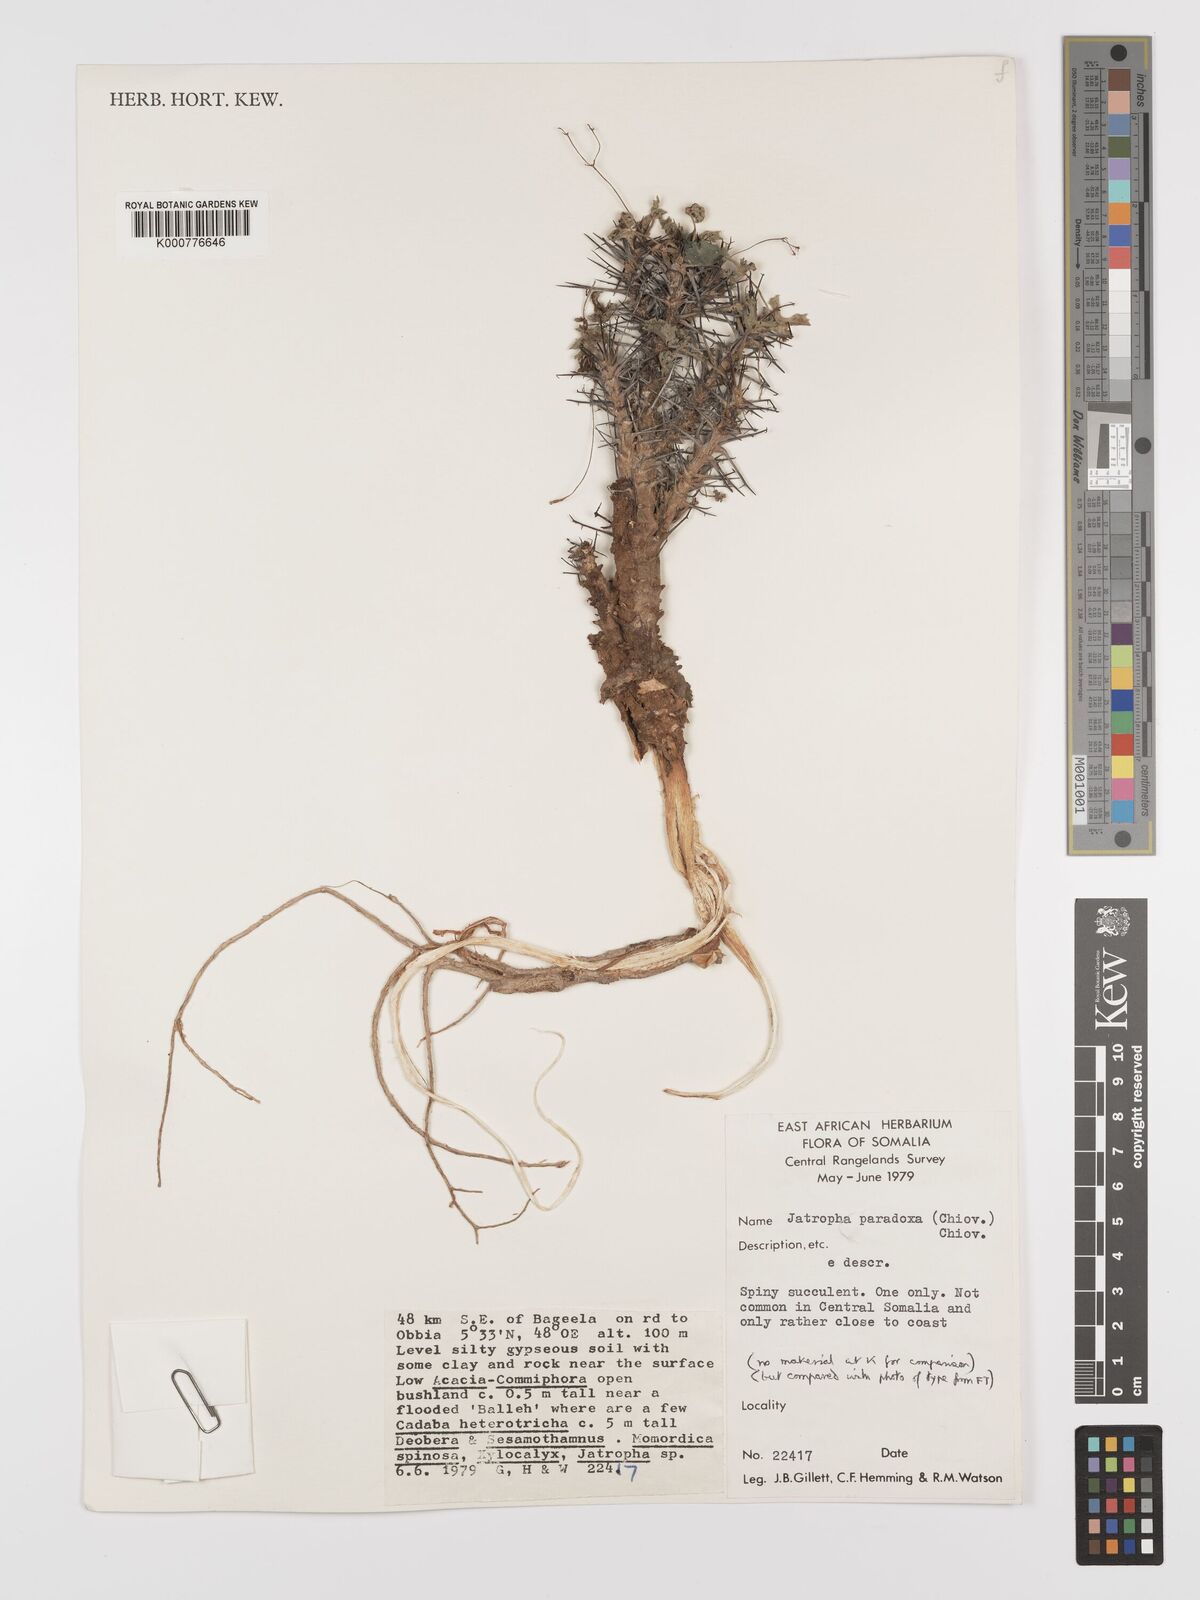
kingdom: Plantae
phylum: Tracheophyta
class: Magnoliopsida
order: Malpighiales
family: Euphorbiaceae
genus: Jatropha
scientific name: Jatropha paradoxa
